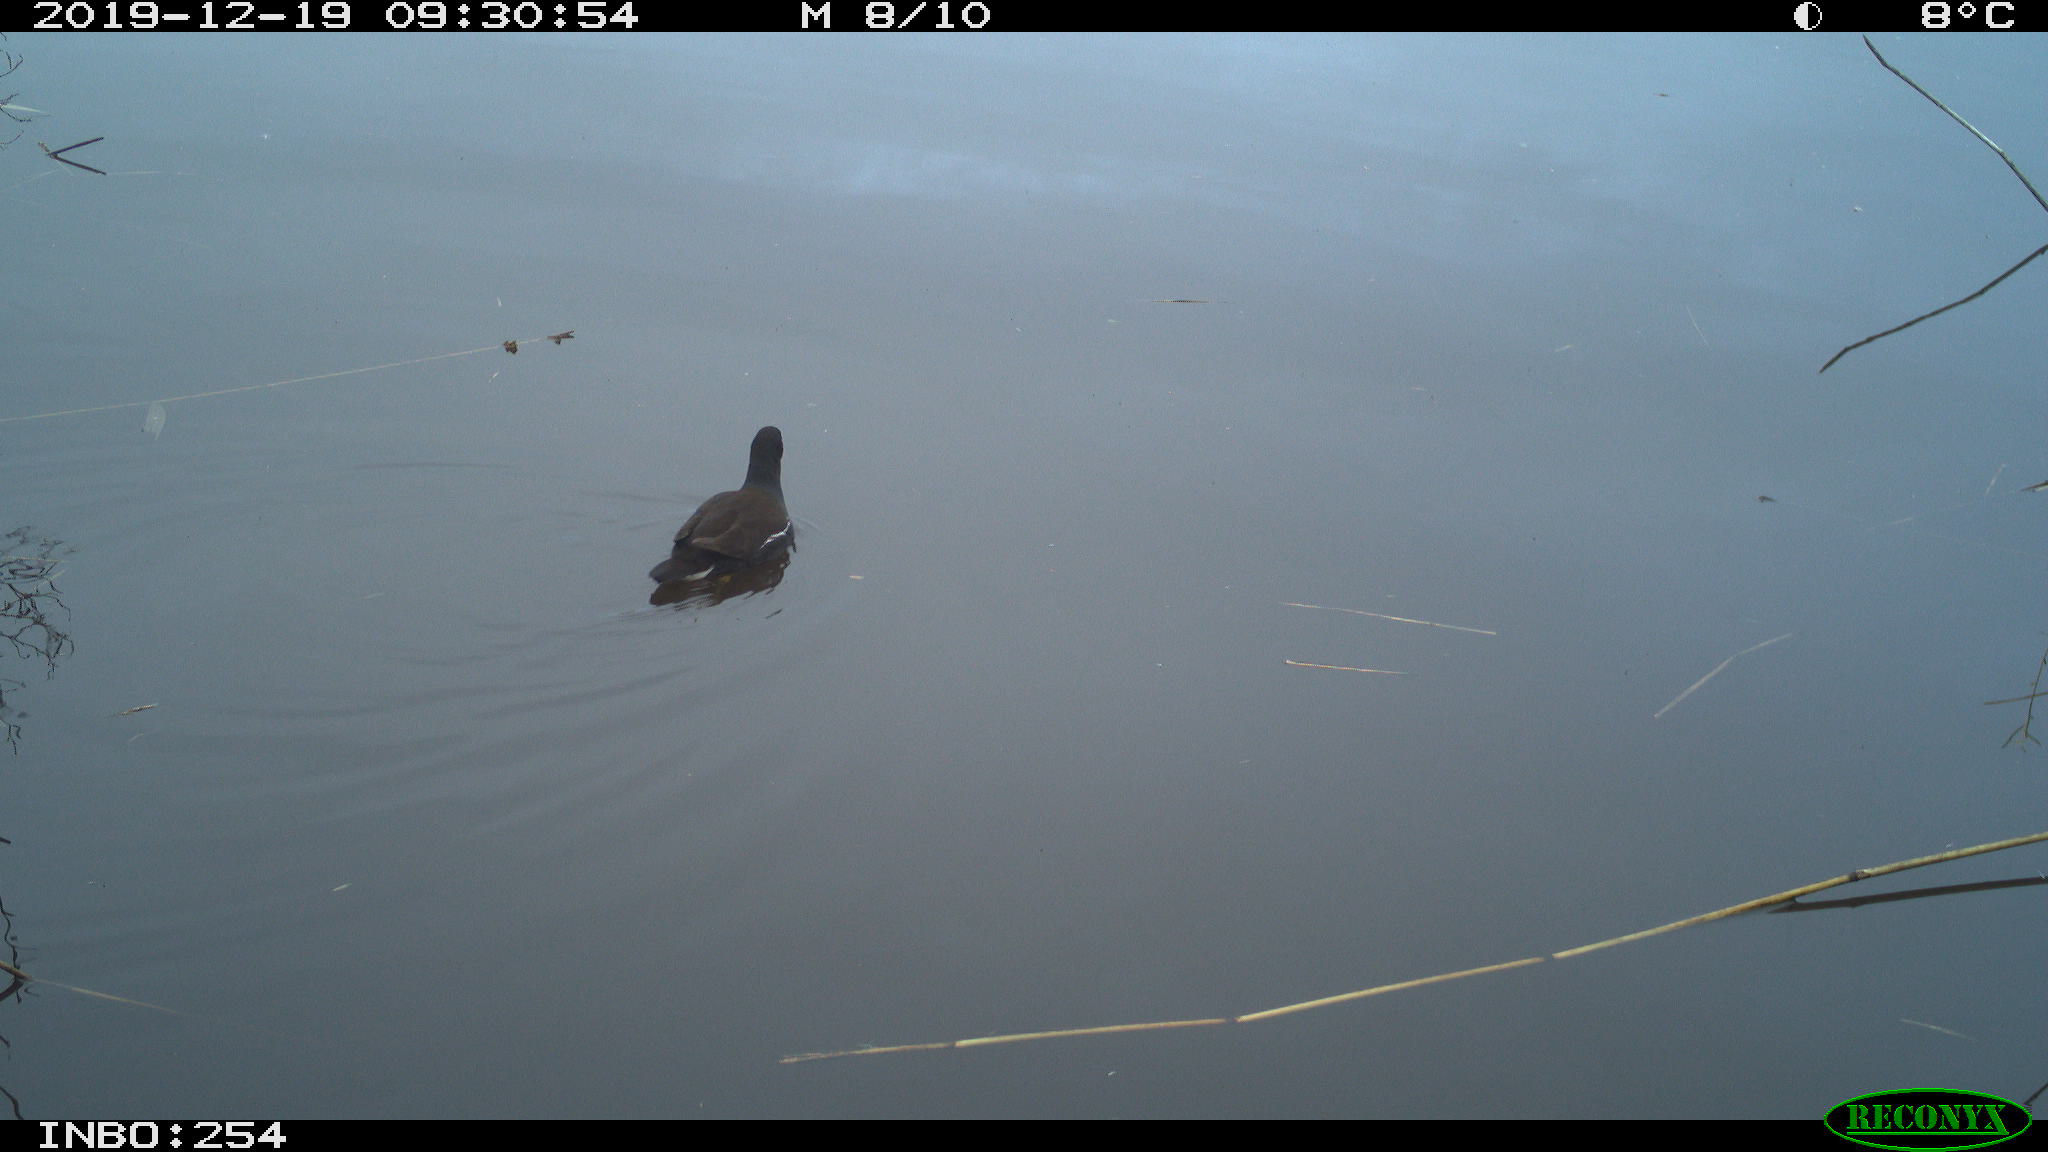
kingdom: Animalia
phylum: Chordata
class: Aves
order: Gruiformes
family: Rallidae
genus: Gallinula
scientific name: Gallinula chloropus
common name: Common moorhen
